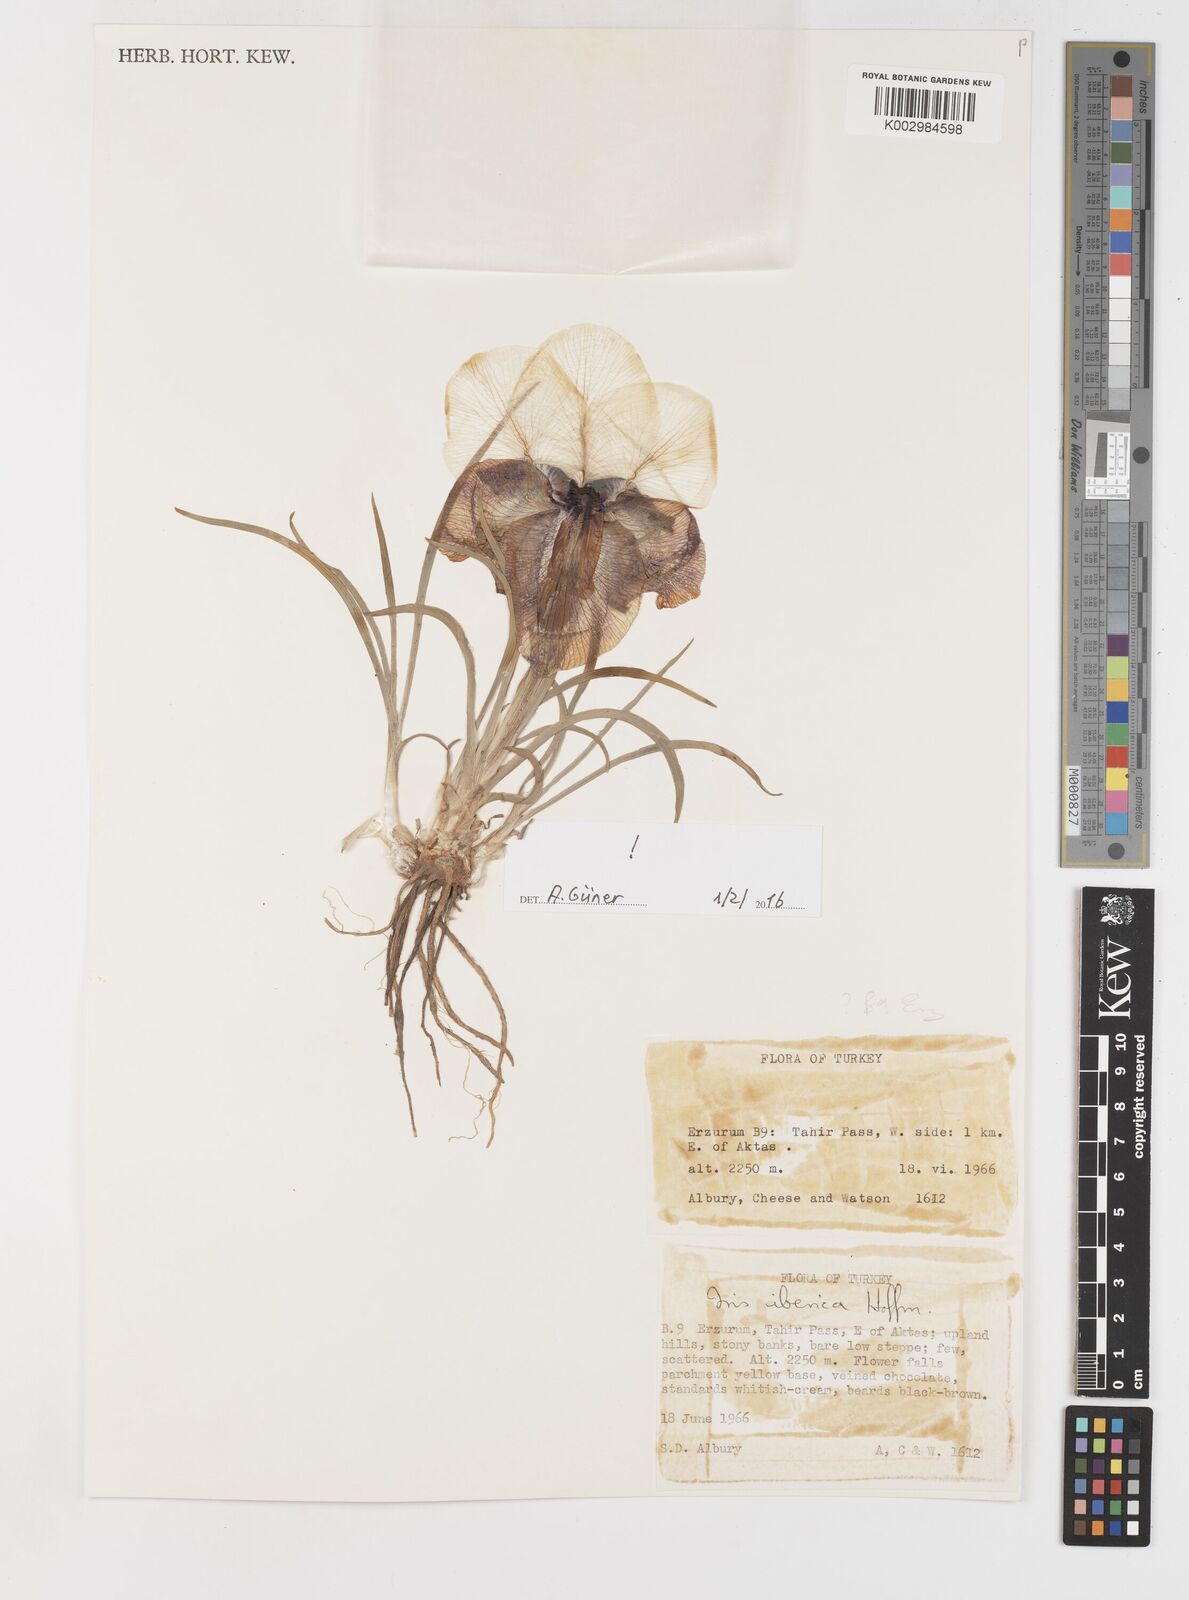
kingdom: Plantae
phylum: Tracheophyta
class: Liliopsida
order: Asparagales
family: Iridaceae
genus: Iris
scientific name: Iris iberica
